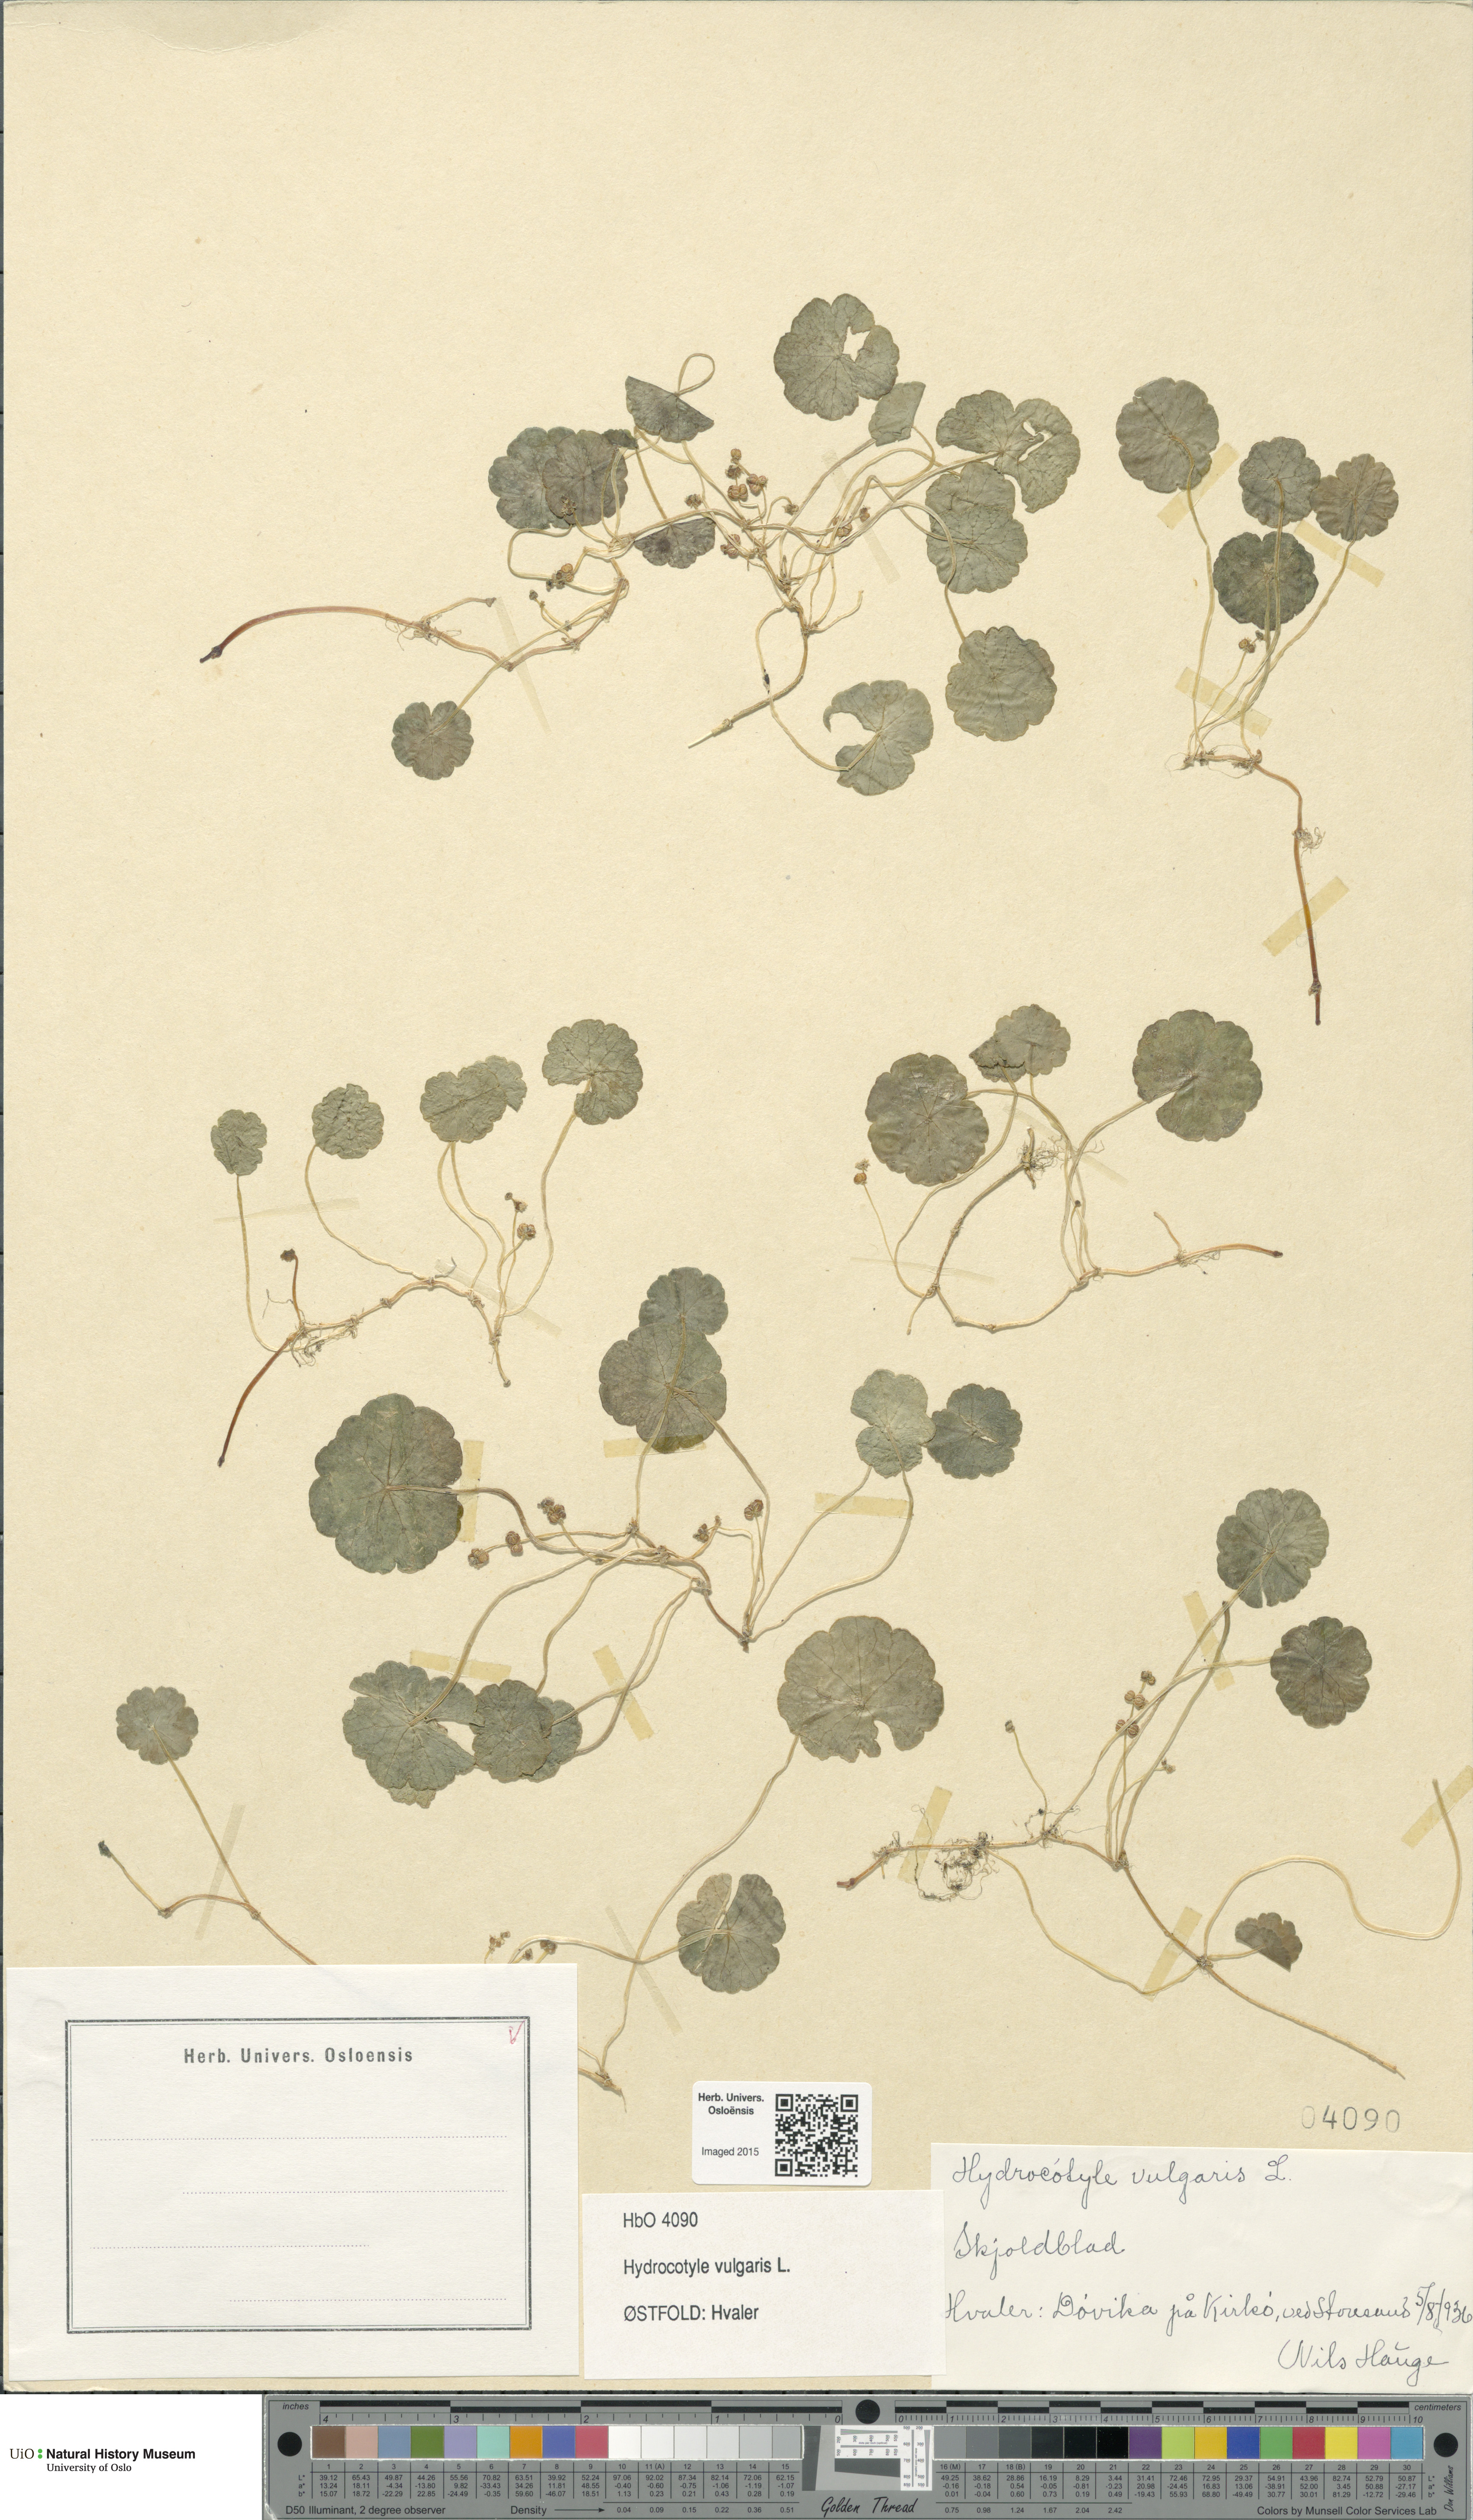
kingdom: Plantae
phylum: Tracheophyta
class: Magnoliopsida
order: Apiales
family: Araliaceae
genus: Hydrocotyle
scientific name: Hydrocotyle vulgaris
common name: Marsh pennywort
